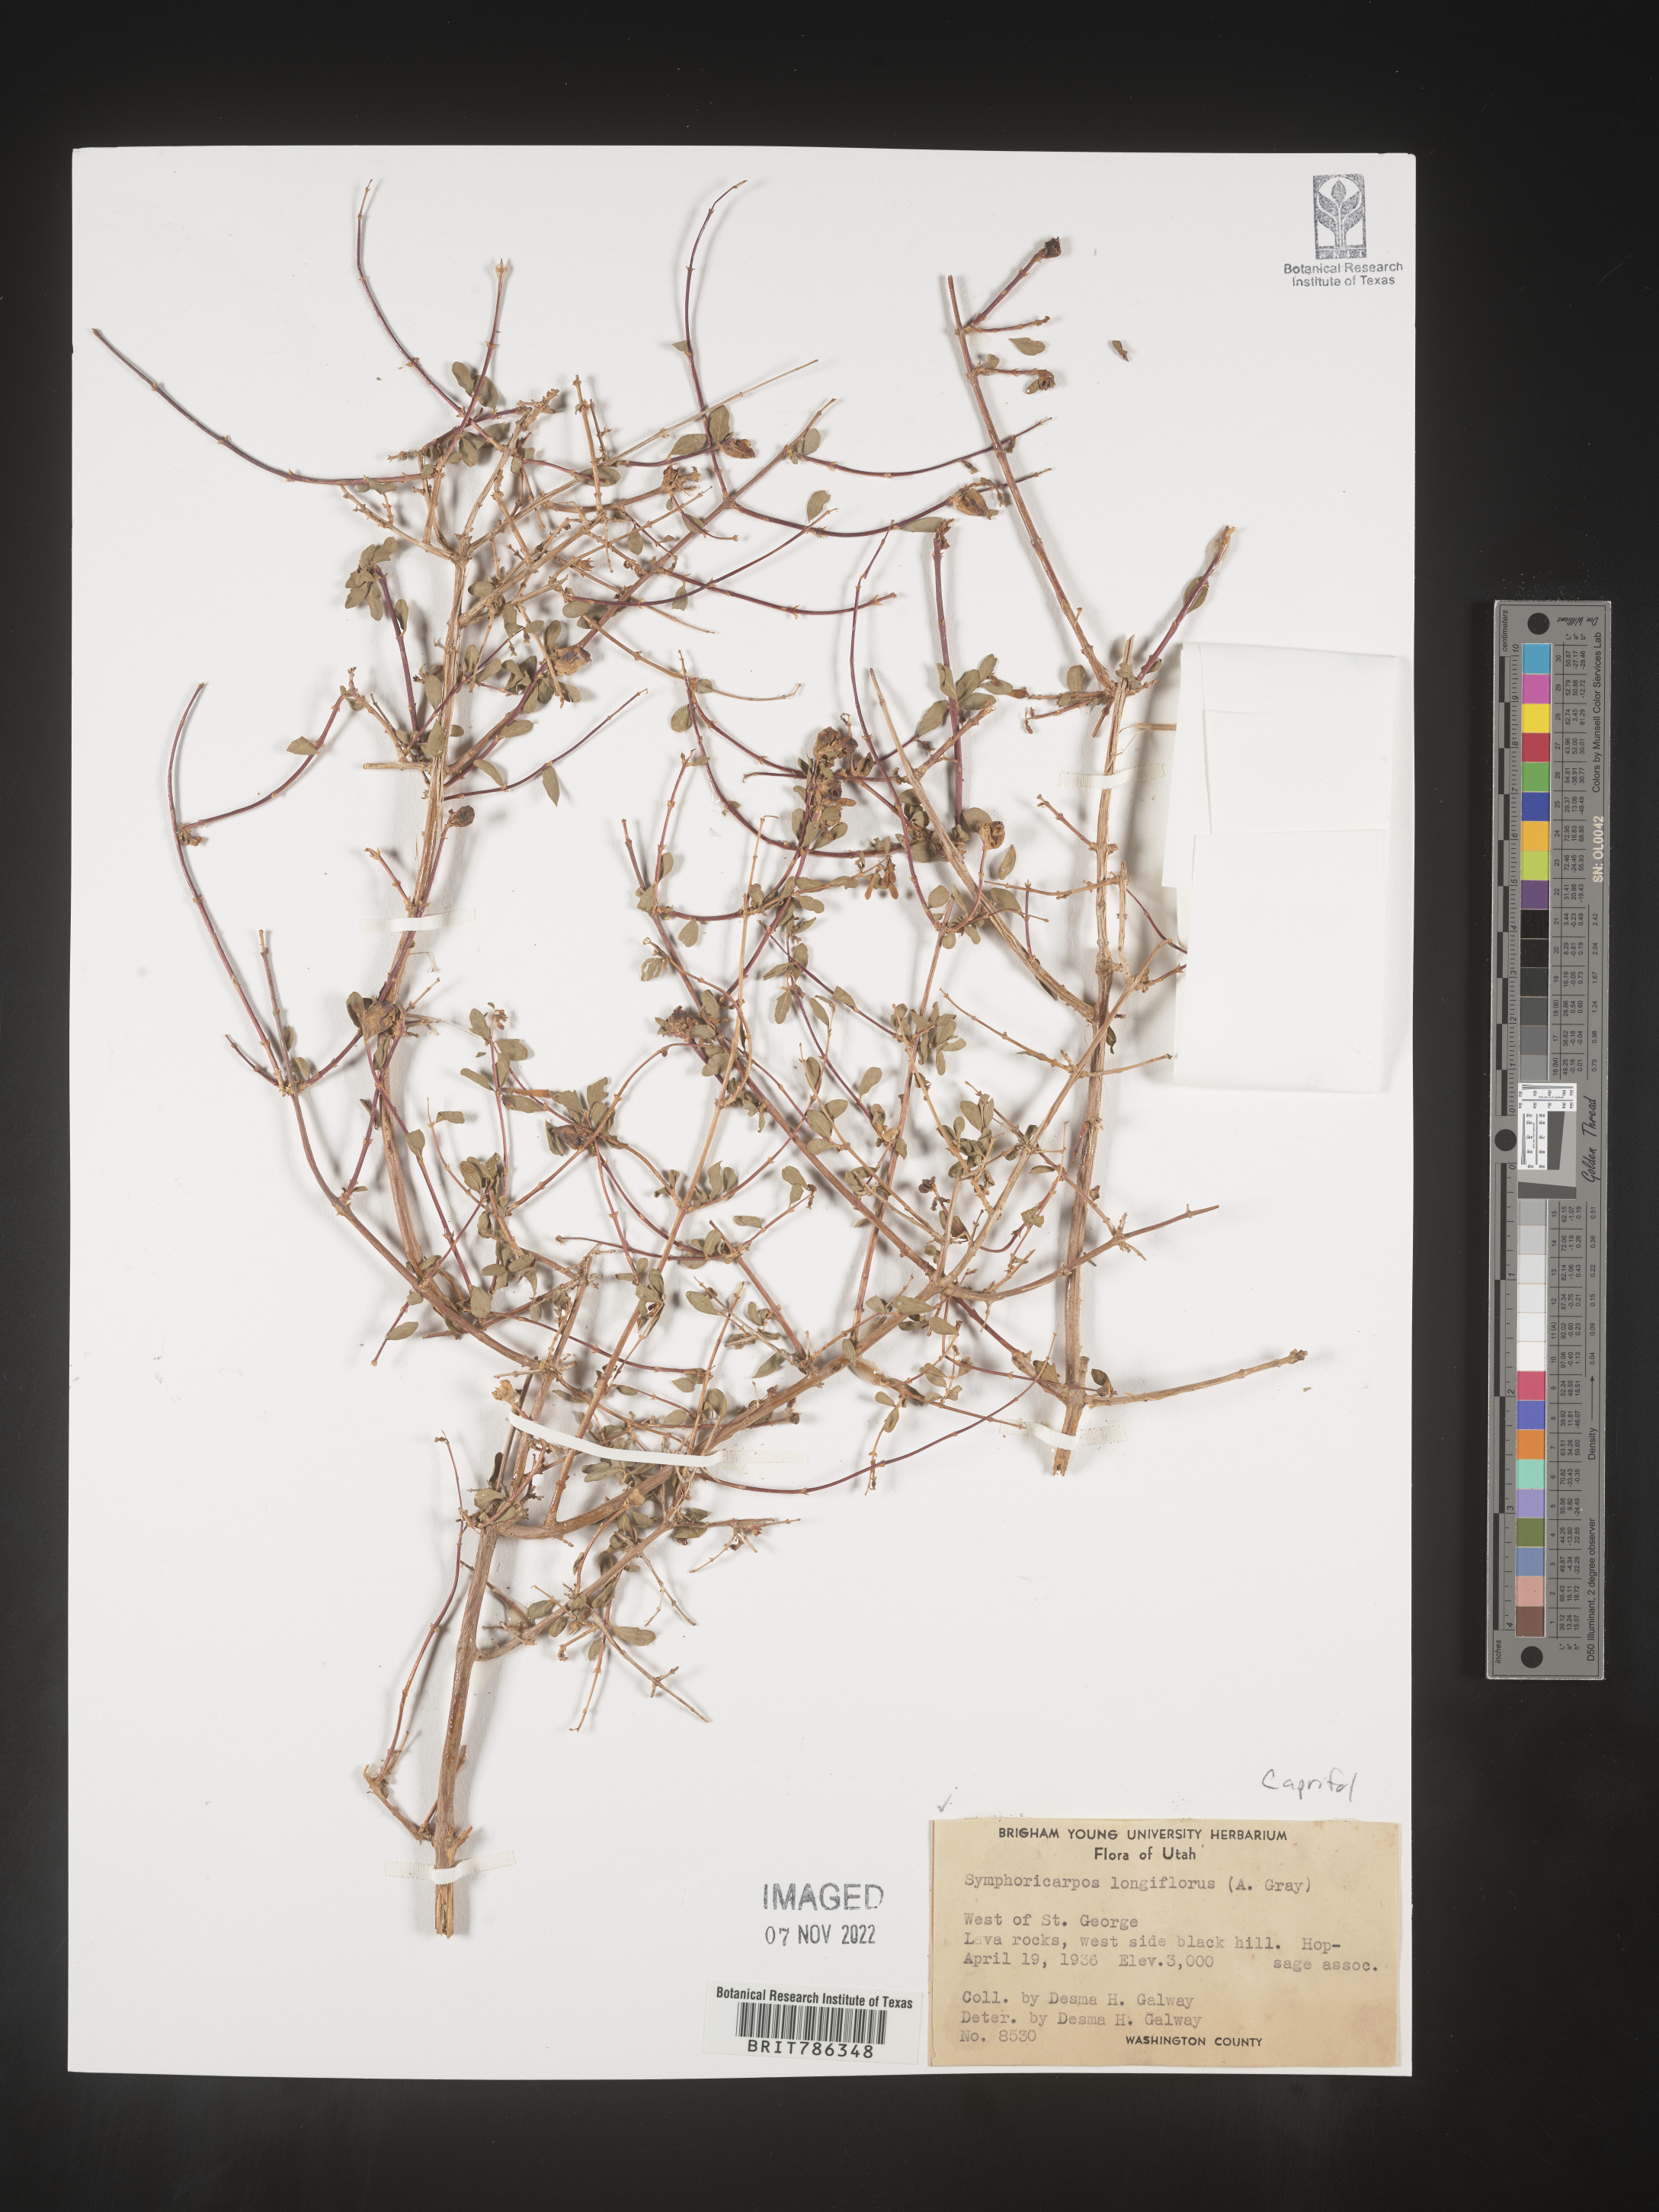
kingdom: Plantae
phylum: Tracheophyta
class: Magnoliopsida
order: Dipsacales
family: Caprifoliaceae
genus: Symphoricarpos
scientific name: Symphoricarpos
